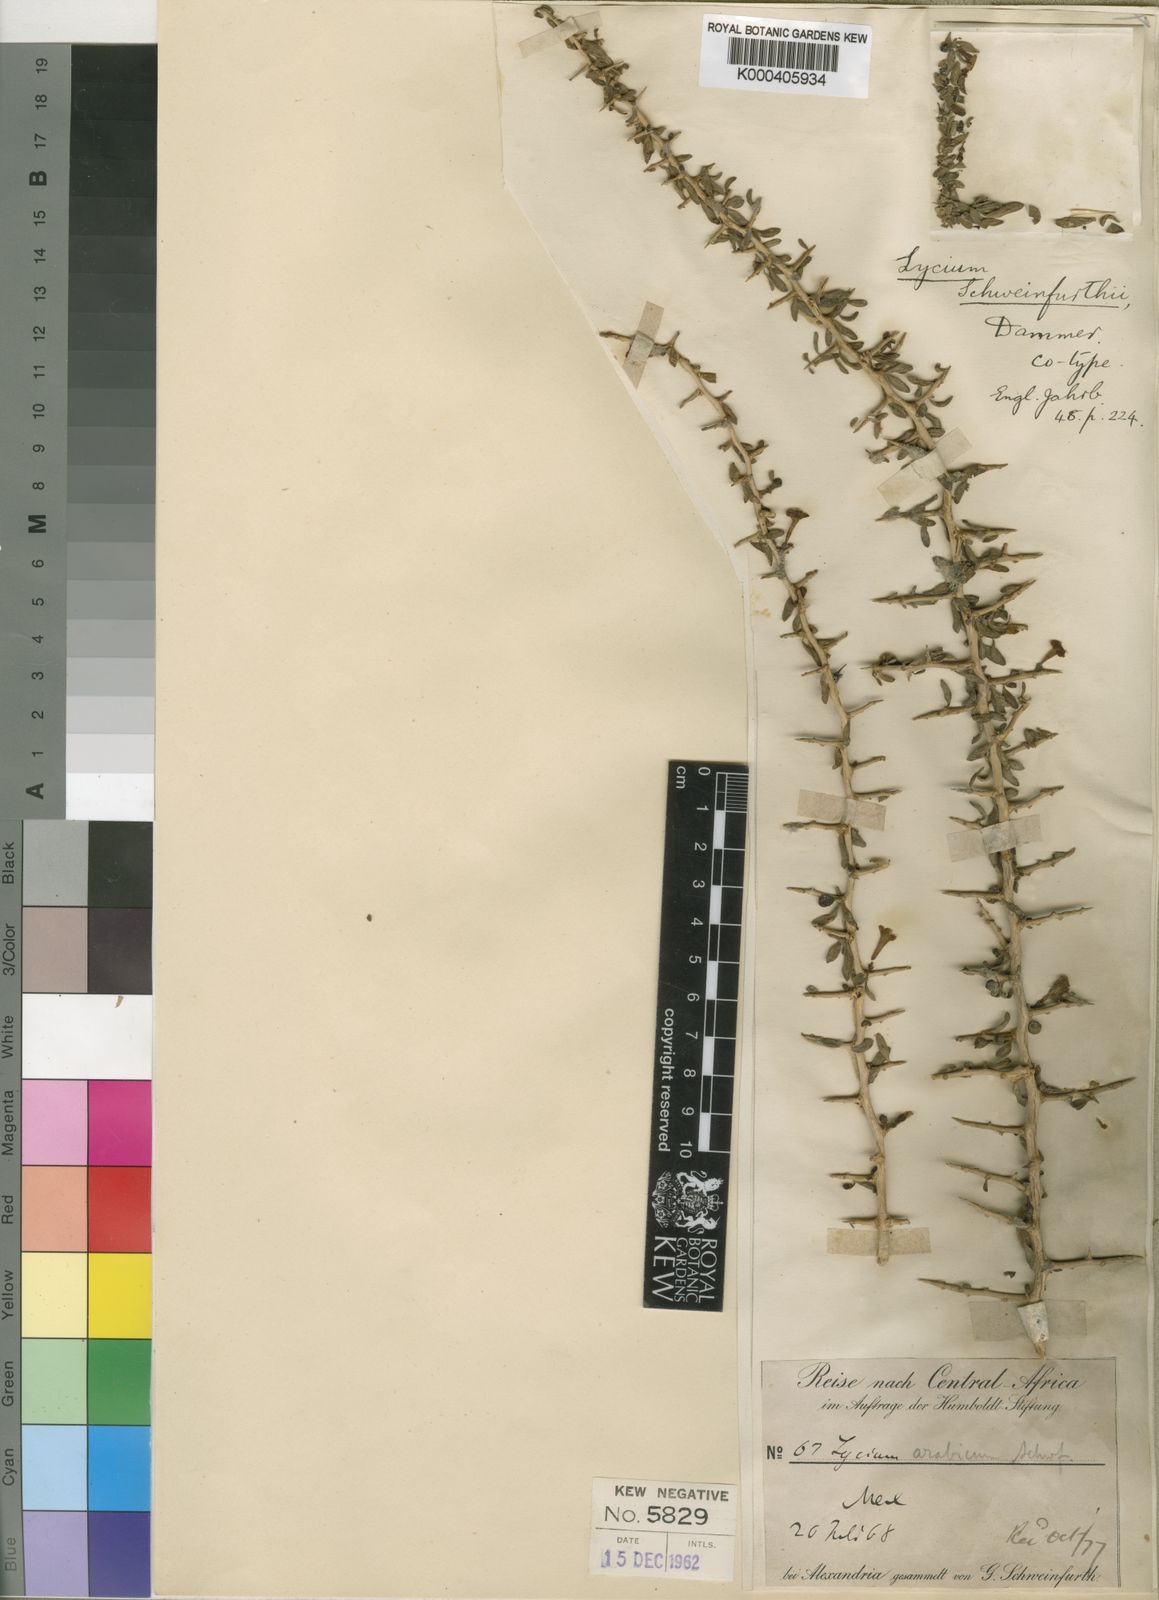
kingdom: Plantae
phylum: Tracheophyta
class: Magnoliopsida
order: Solanales
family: Solanaceae
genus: Lycium
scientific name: Lycium europaeum
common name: Boxthorn
